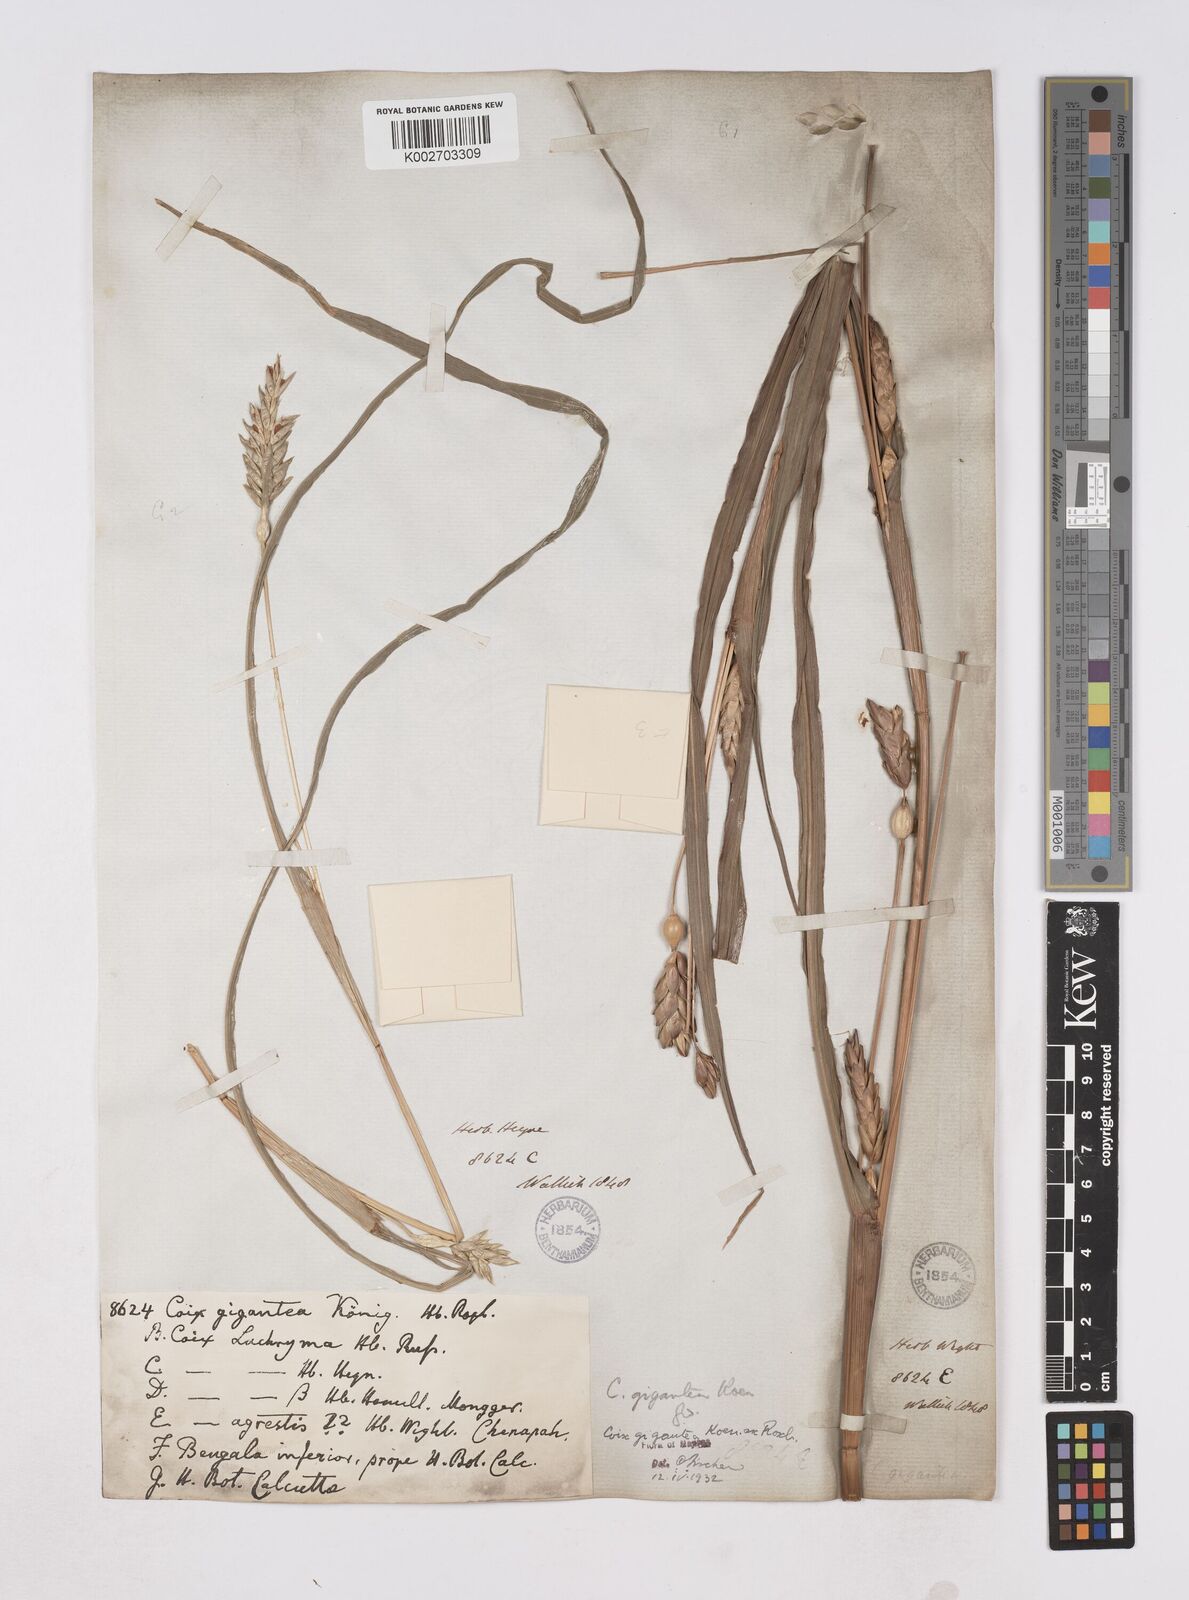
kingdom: Plantae
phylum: Tracheophyta
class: Liliopsida
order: Poales
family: Poaceae
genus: Polytoca
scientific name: Polytoca gigantea
